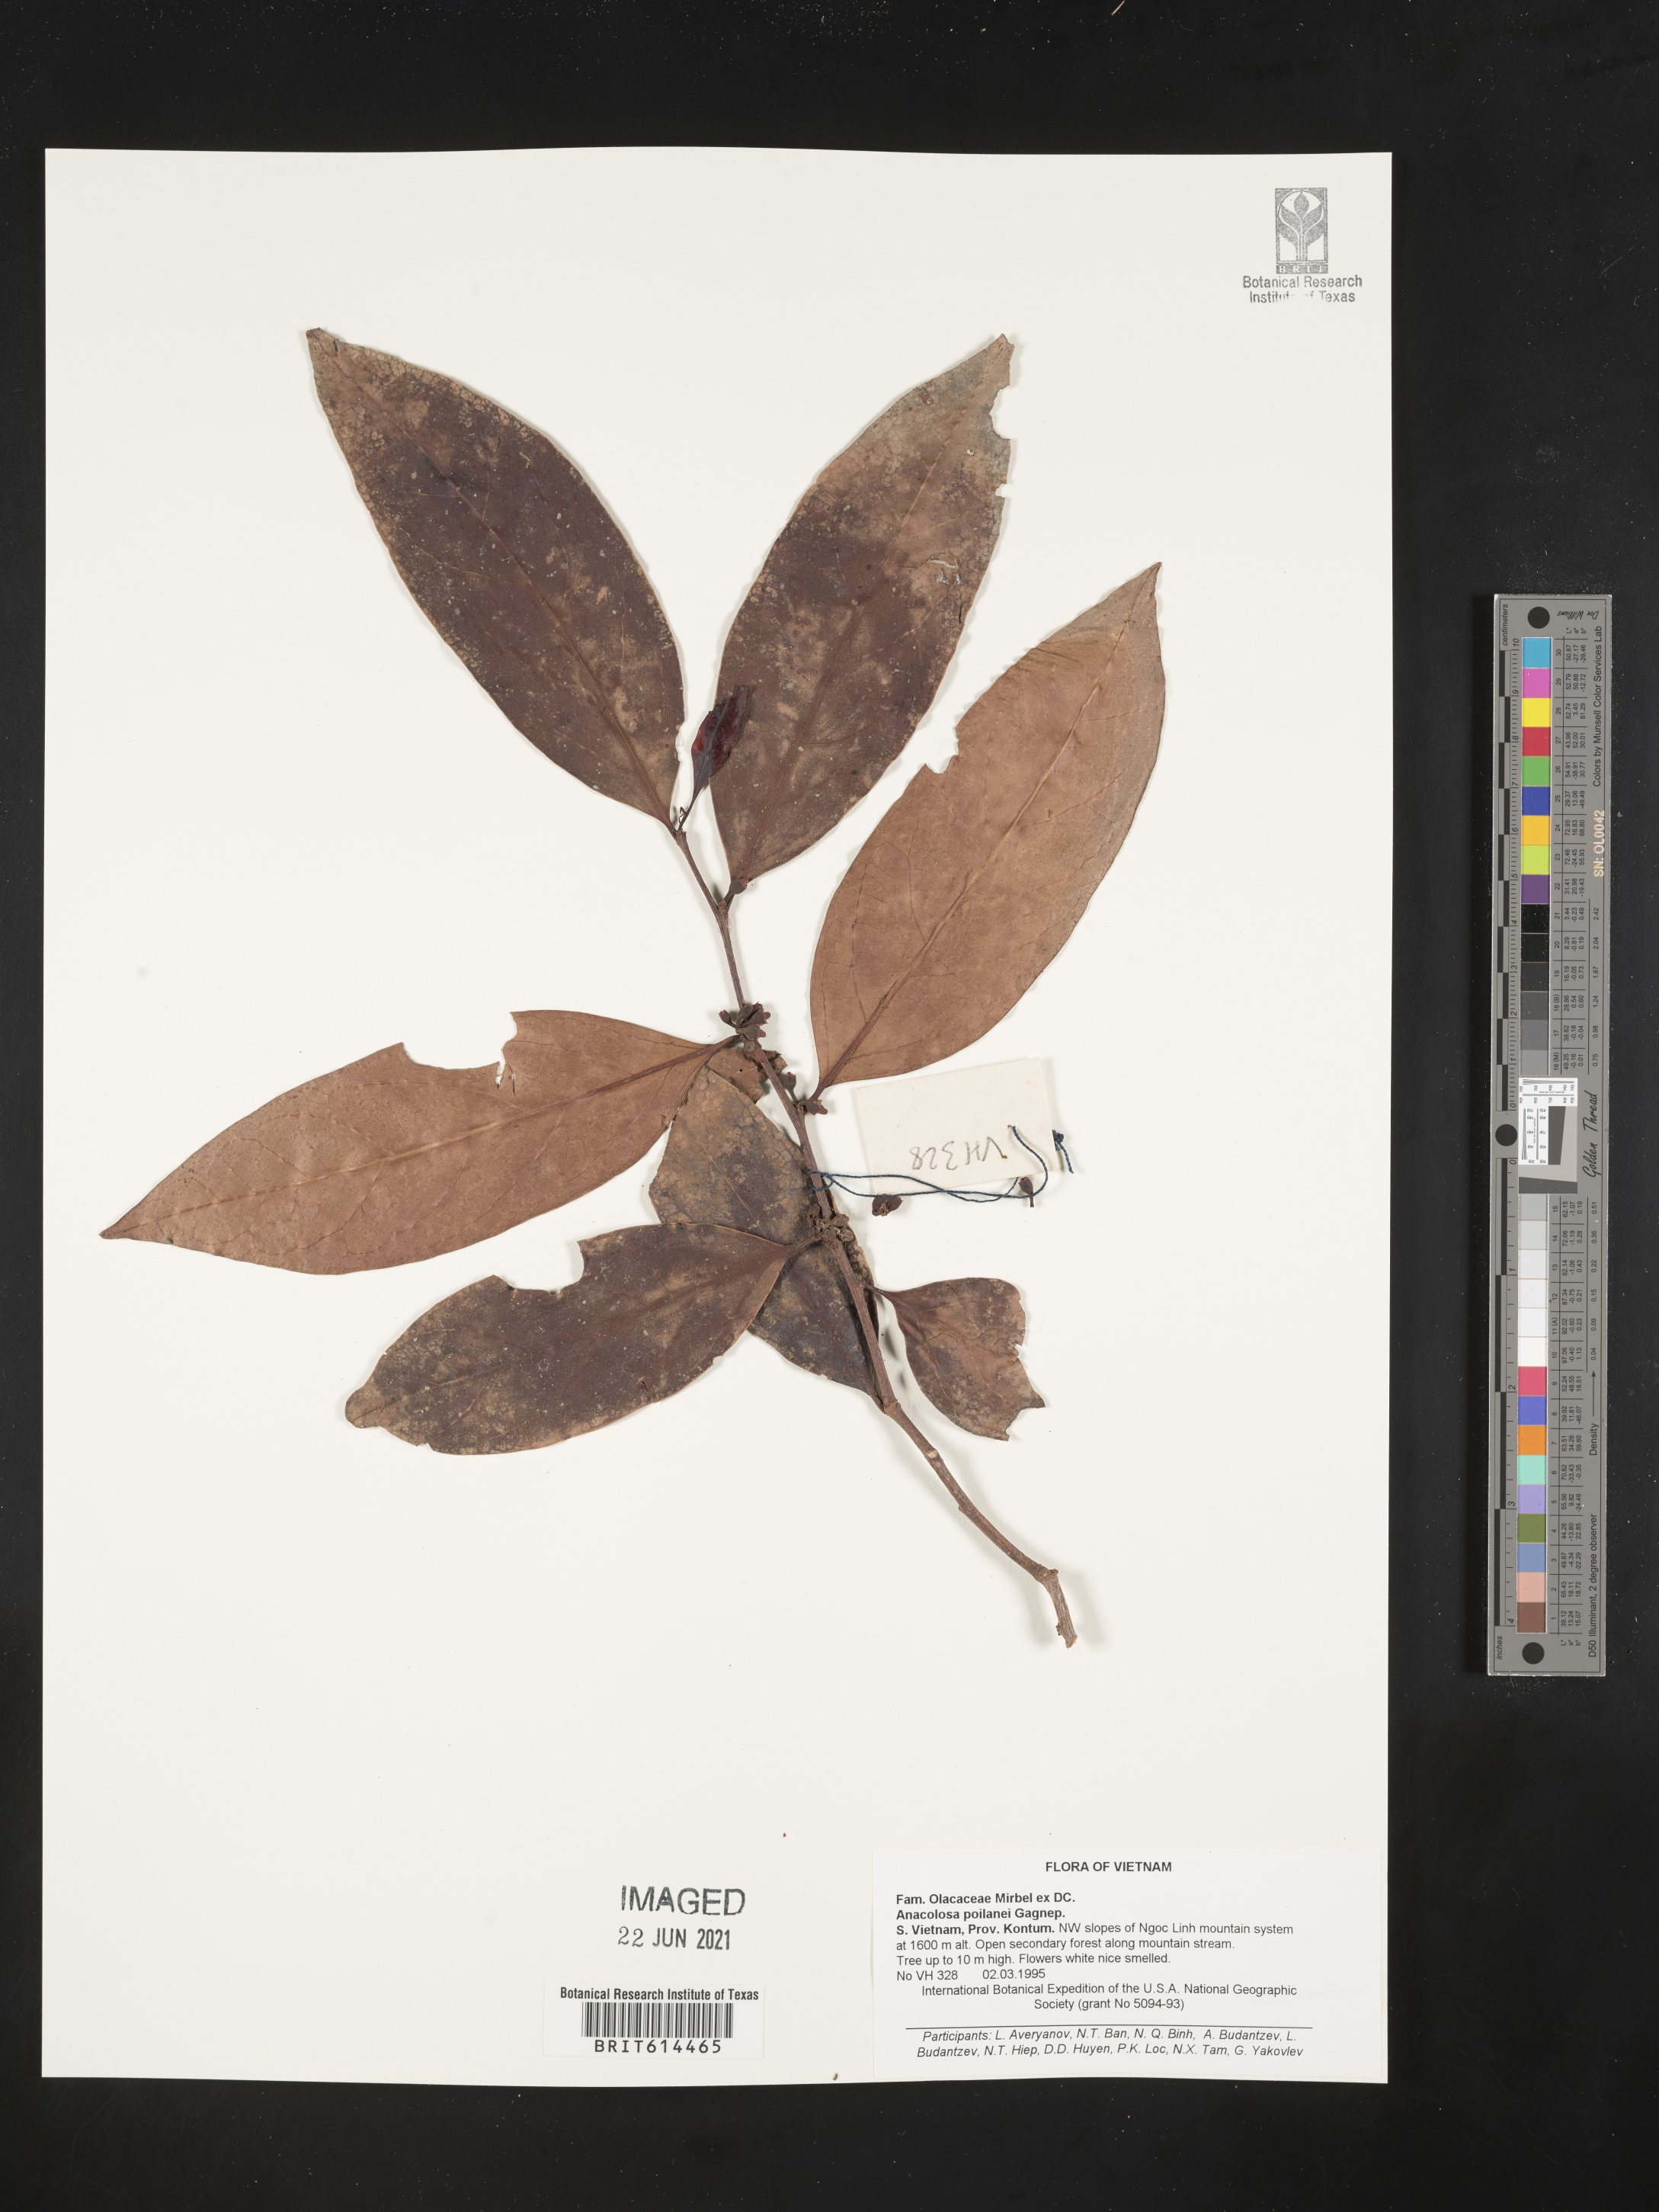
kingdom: Plantae
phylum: Tracheophyta
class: Magnoliopsida
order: Santalales
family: Aptandraceae
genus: Anacolosa
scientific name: Anacolosa poilanei
